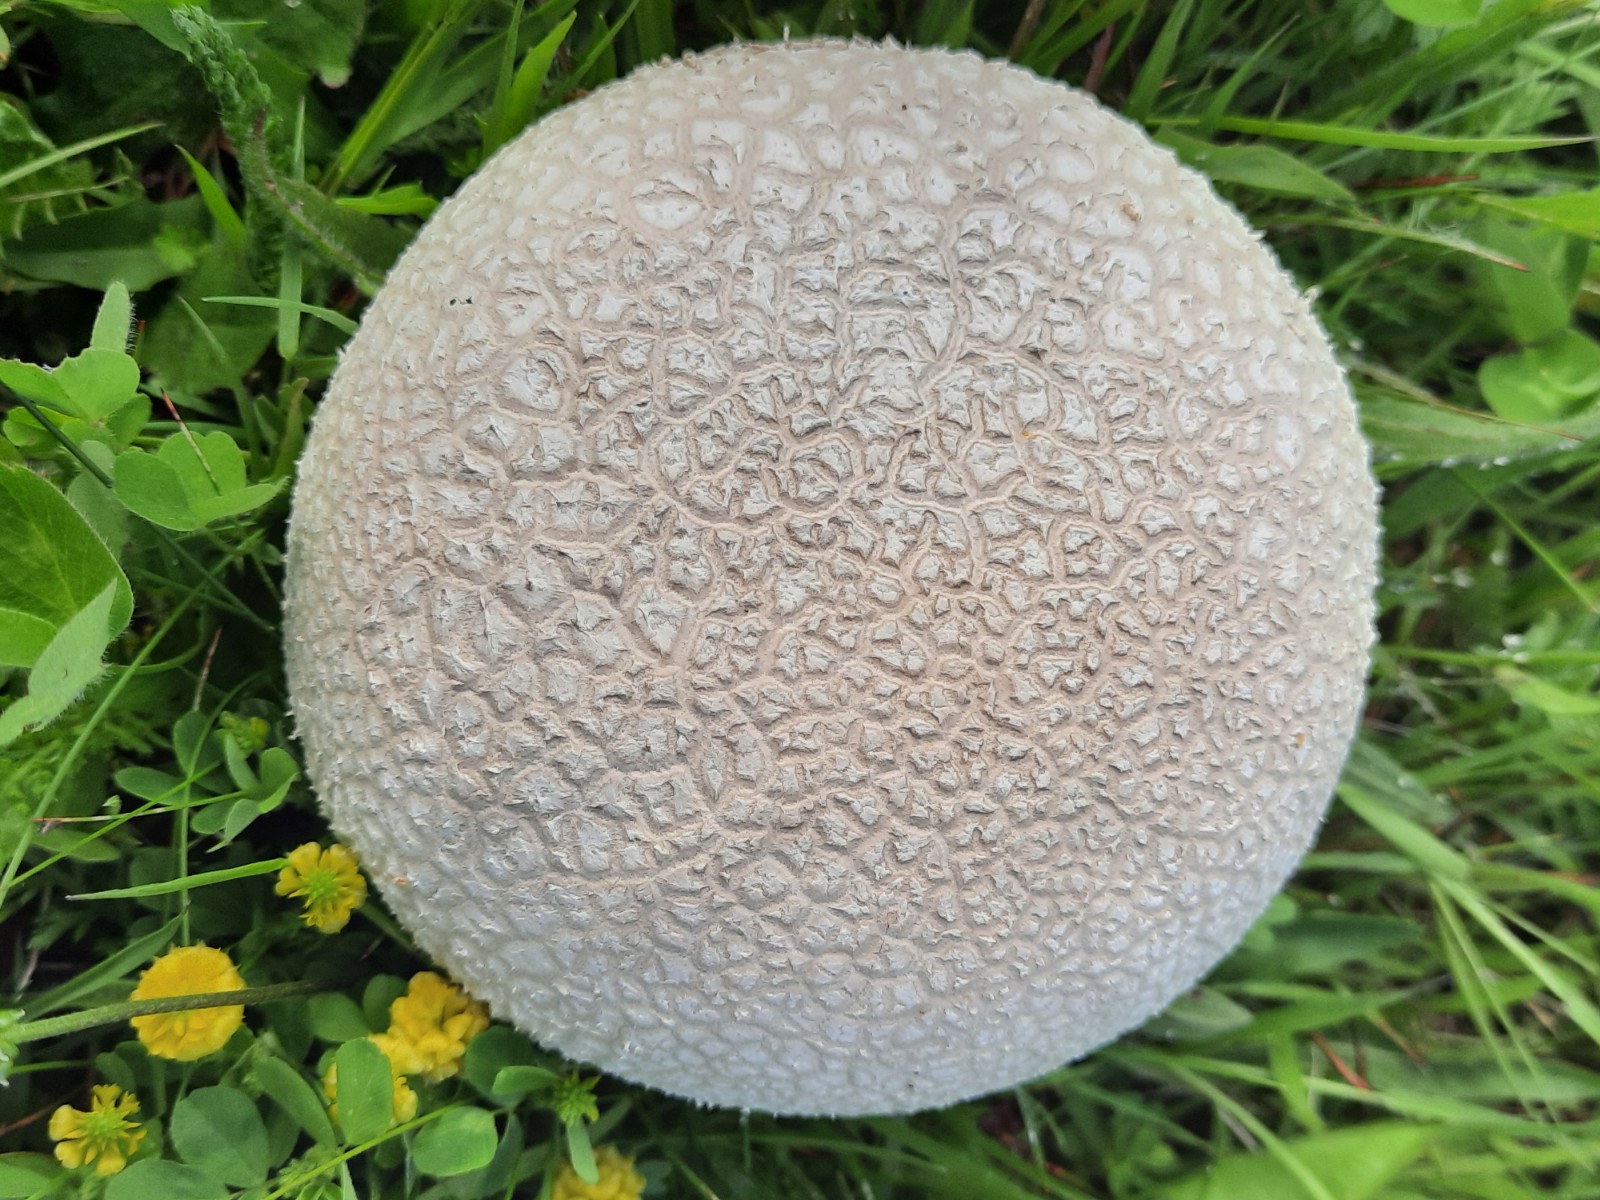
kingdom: Fungi
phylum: Basidiomycota
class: Agaricomycetes
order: Agaricales
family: Lycoperdaceae
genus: Bovistella
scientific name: Bovistella utriformis
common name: skællet støvbold
